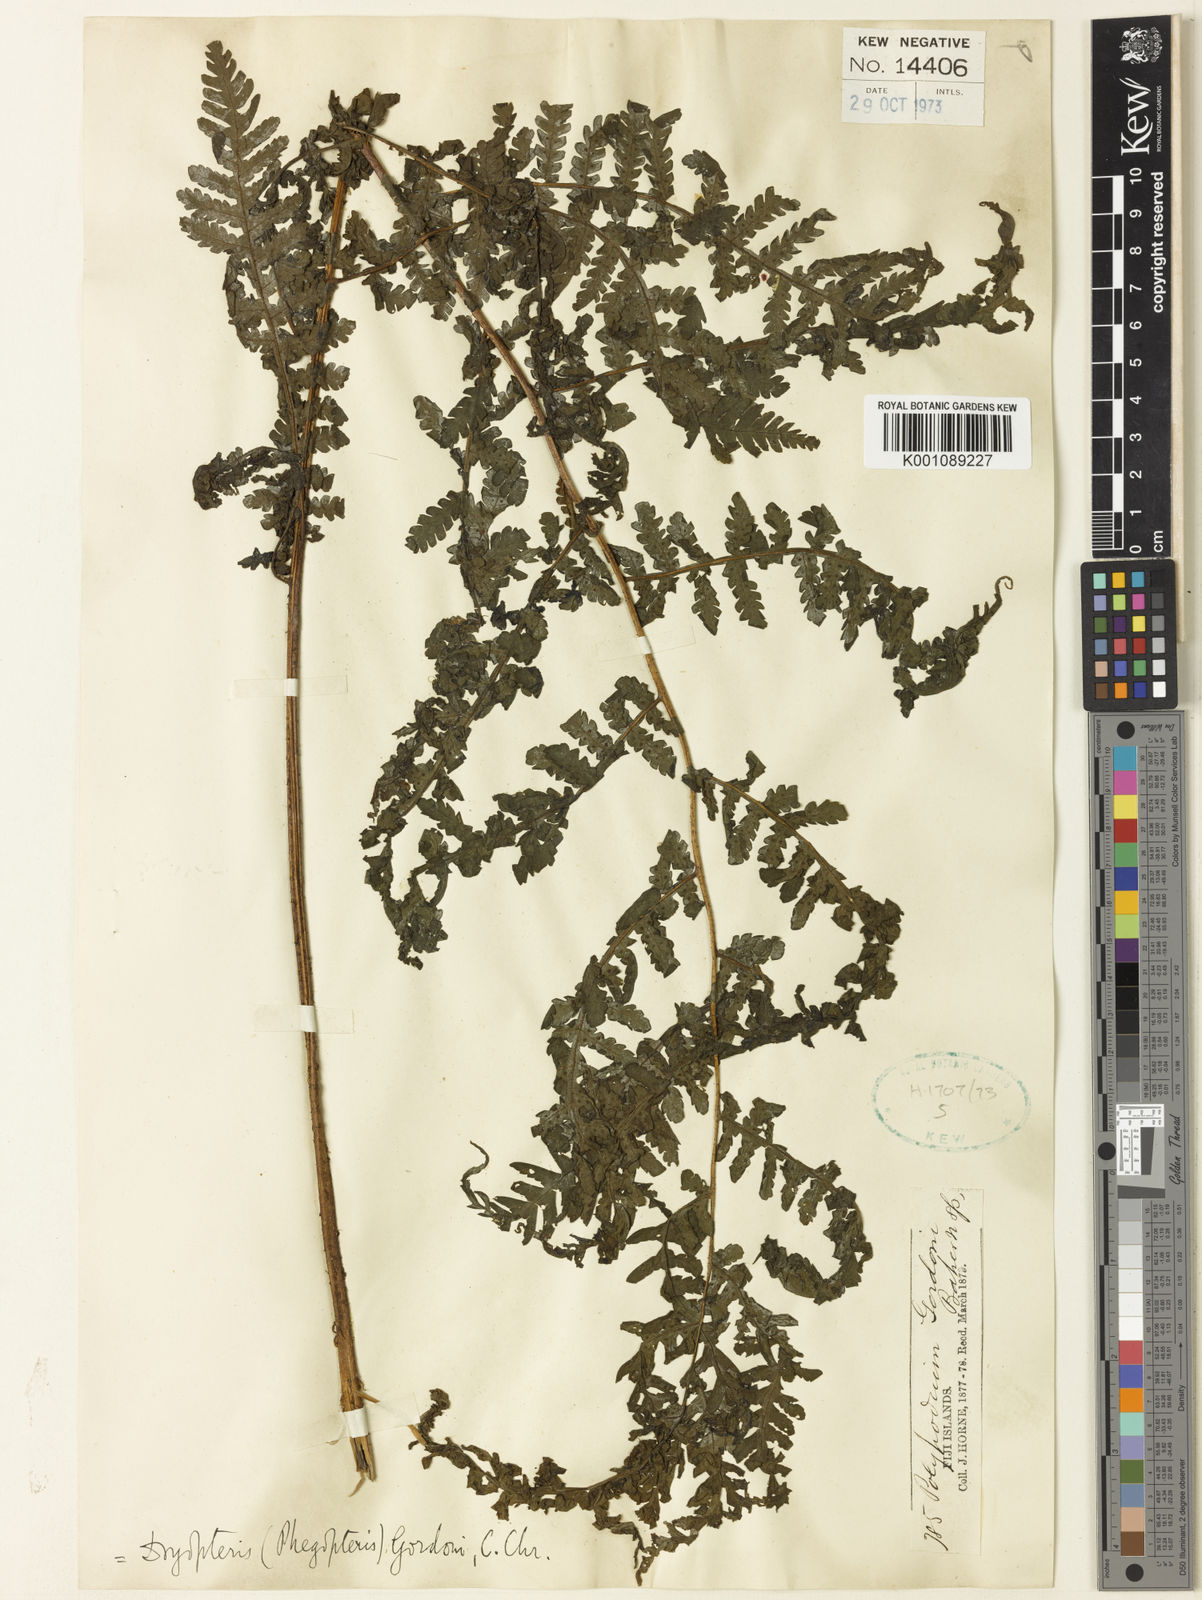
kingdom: Plantae
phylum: Tracheophyta
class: Polypodiopsida
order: Polypodiales
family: Athyriaceae
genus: Deparia
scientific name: Deparia boryana
